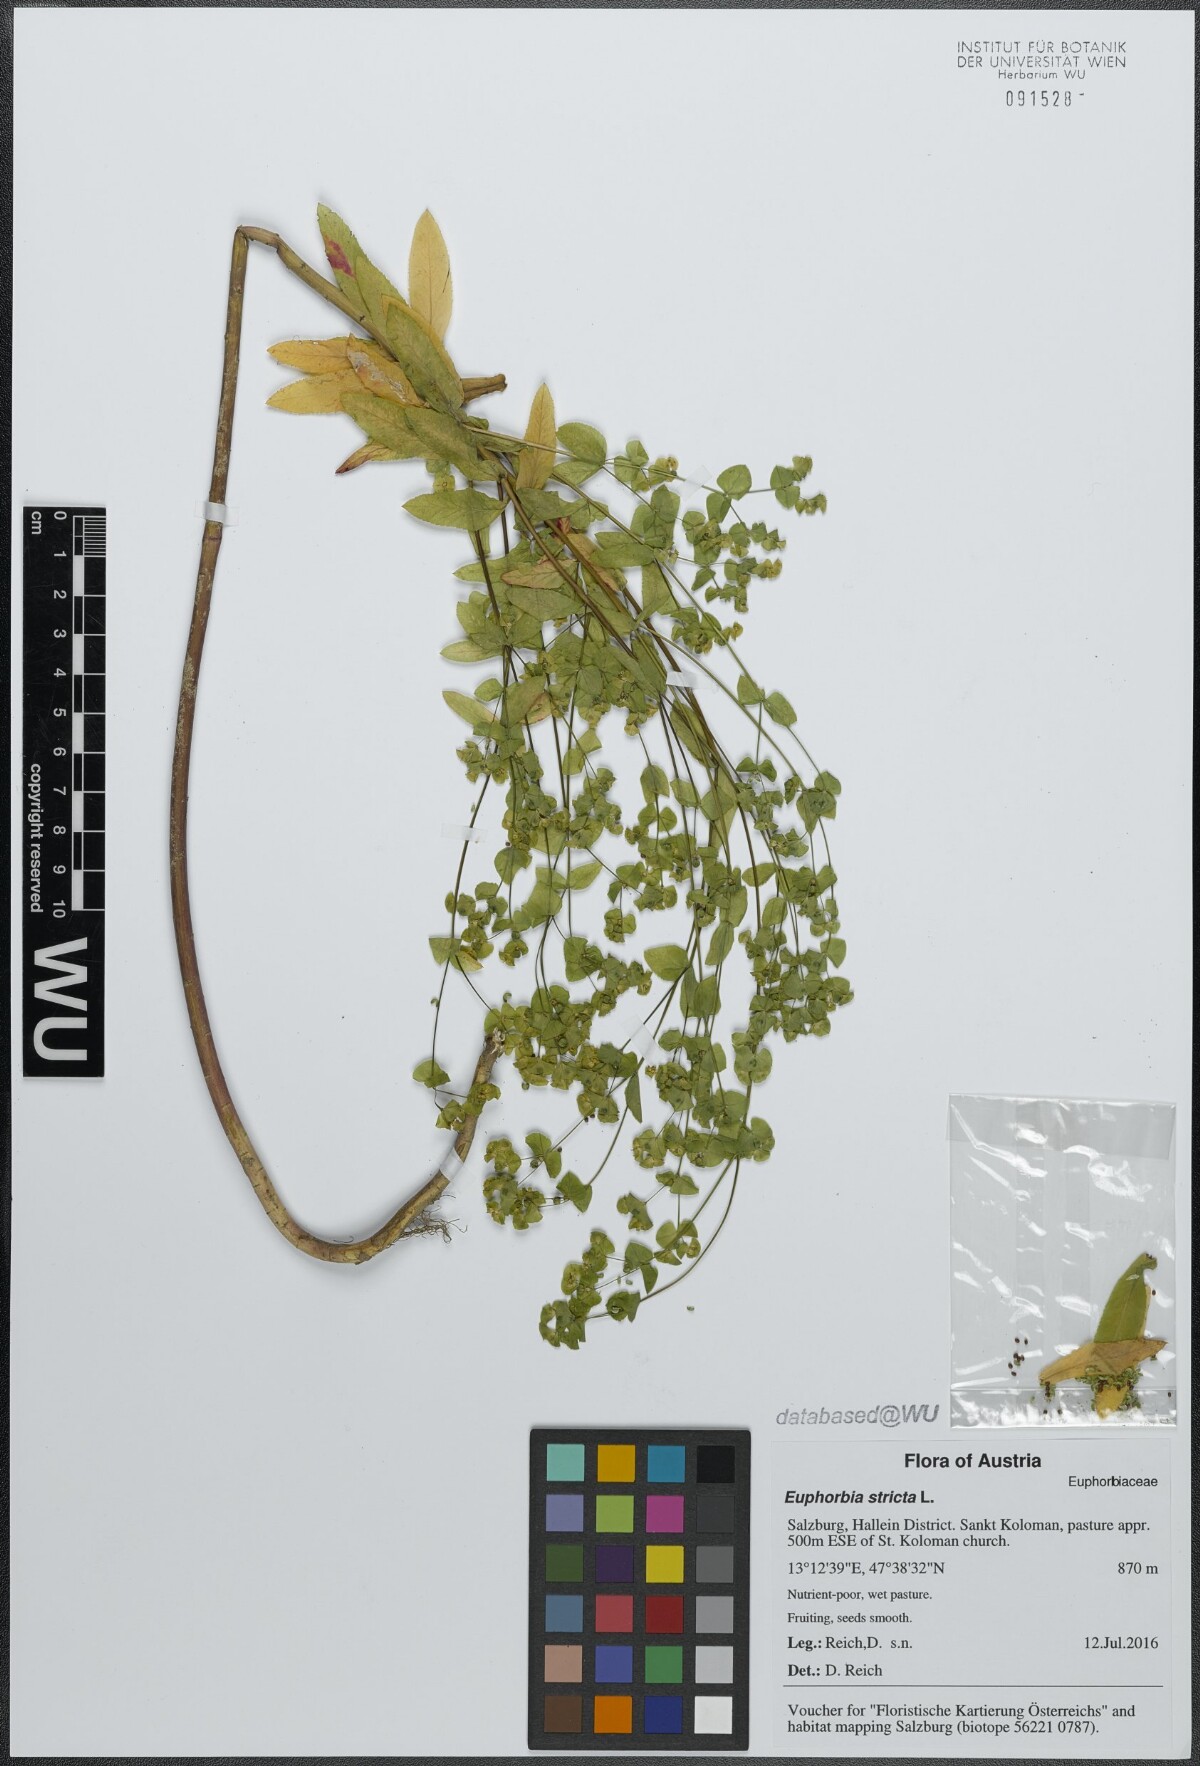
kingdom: Plantae
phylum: Tracheophyta
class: Magnoliopsida
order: Malpighiales
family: Euphorbiaceae
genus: Euphorbia
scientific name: Euphorbia stricta
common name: Upright spurge
